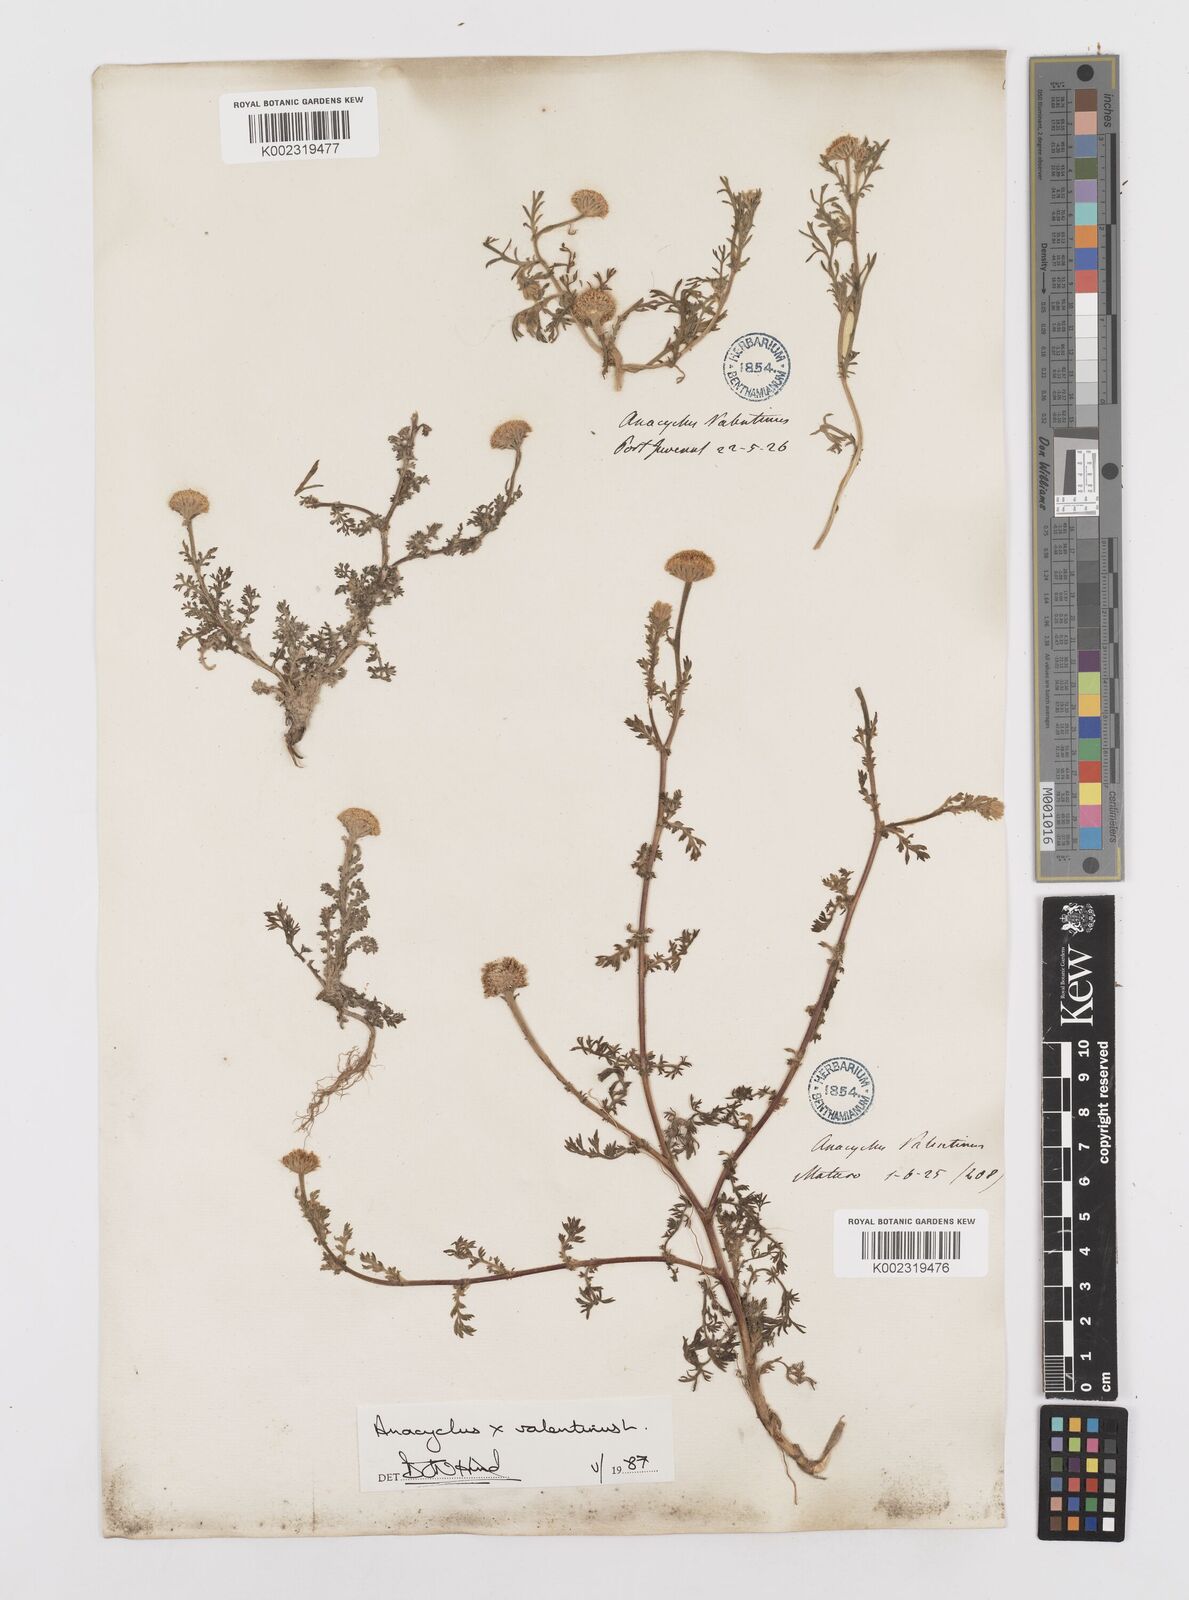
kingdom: Plantae
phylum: Tracheophyta
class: Magnoliopsida
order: Asterales
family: Asteraceae
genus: Anacyclus
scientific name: Anacyclus valentinus
